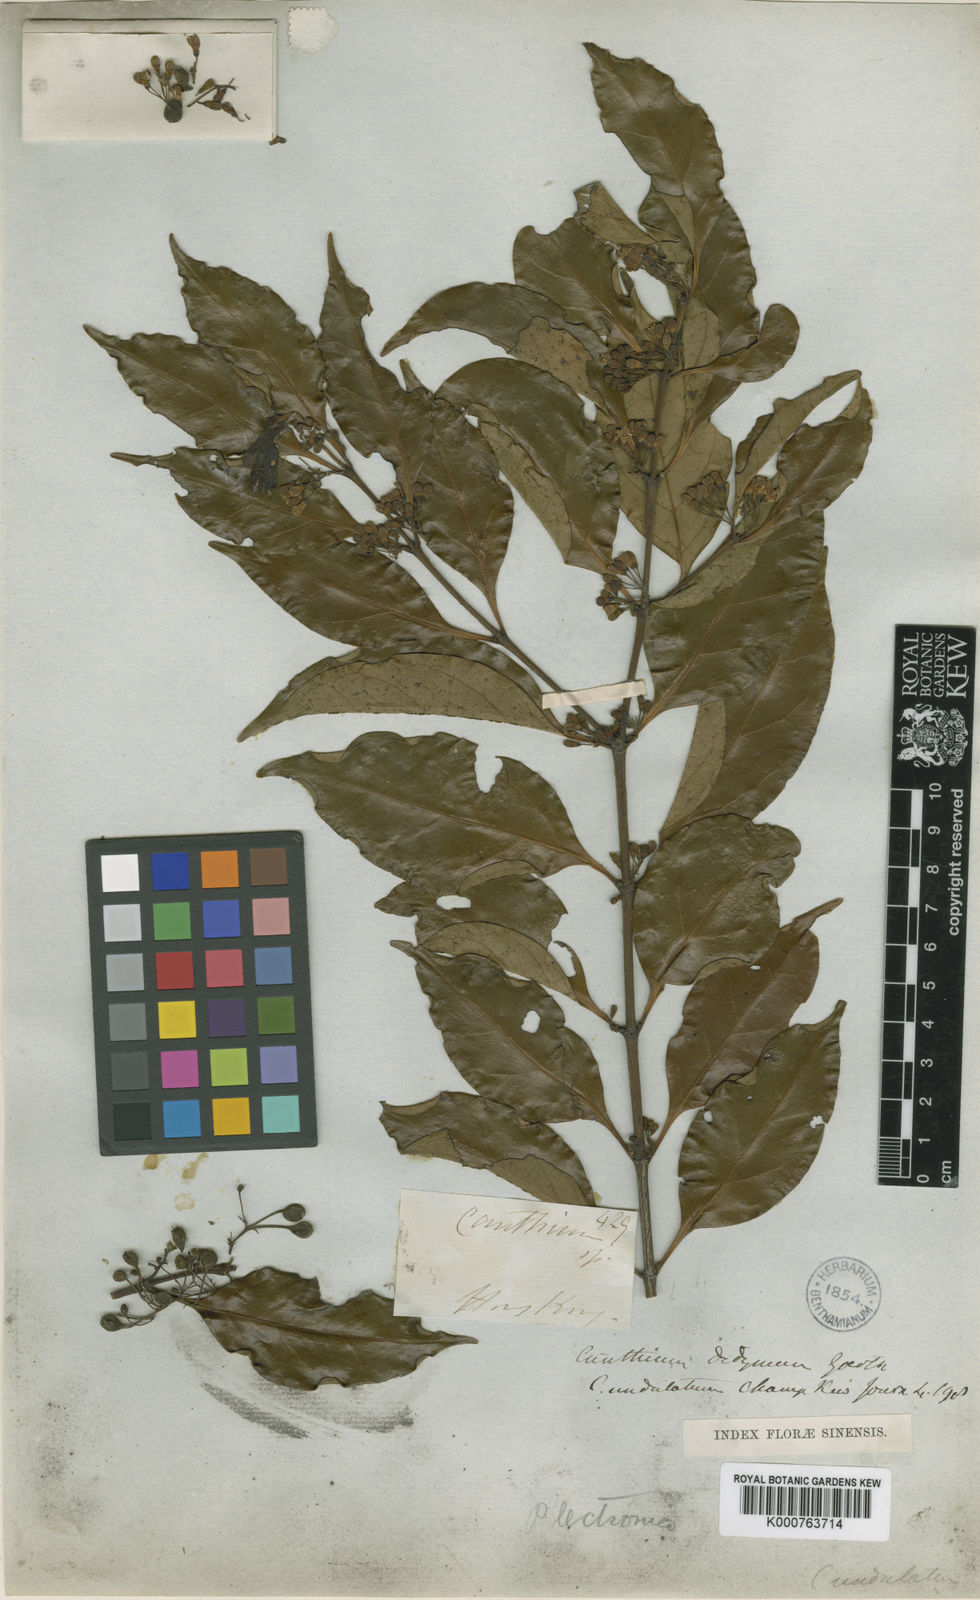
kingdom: Plantae
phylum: Tracheophyta
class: Magnoliopsida
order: Gentianales
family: Rubiaceae
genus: Psydrax
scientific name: Psydrax dicoccos
